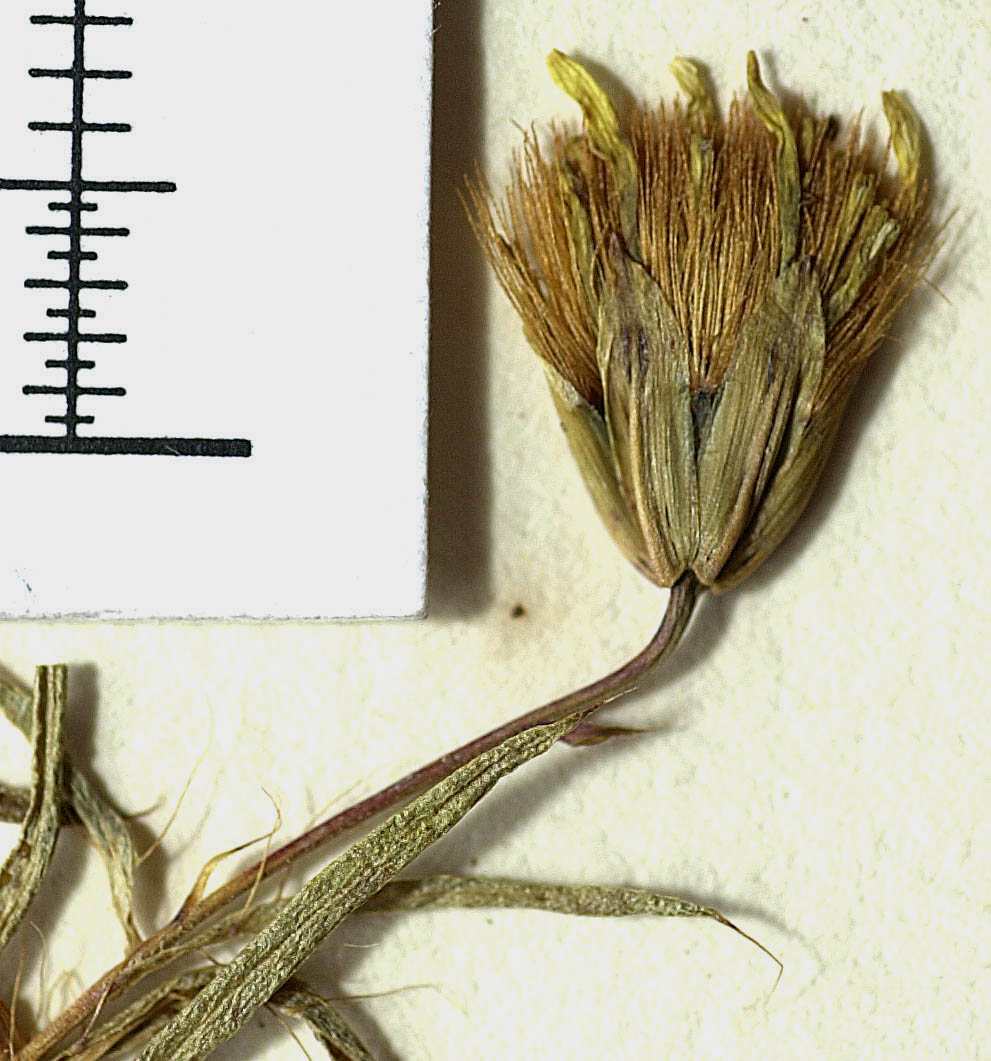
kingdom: Plantae
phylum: Tracheophyta
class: Magnoliopsida
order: Asterales
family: Asteraceae
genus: Pectis
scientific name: Pectis substriata
